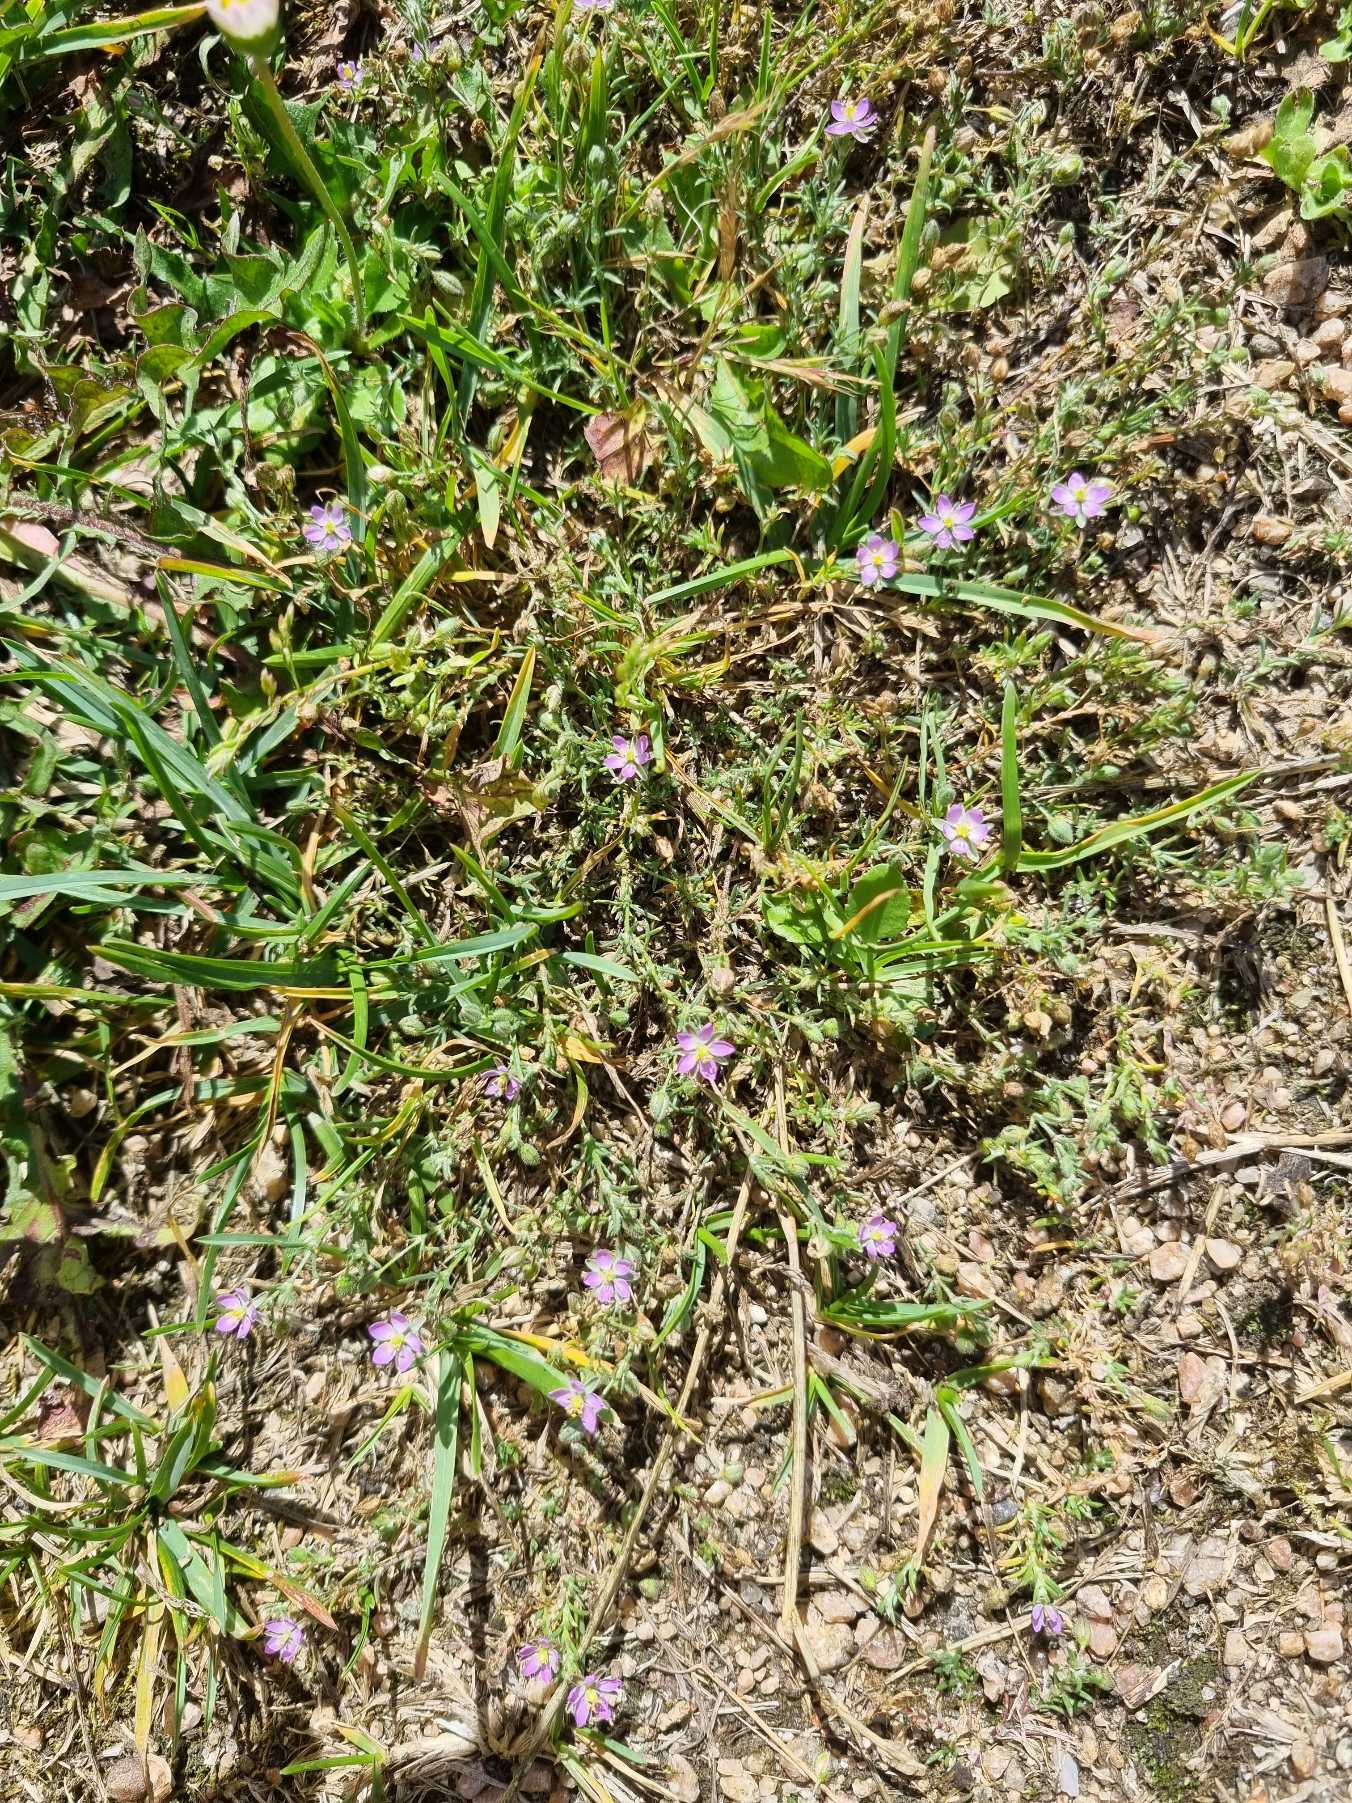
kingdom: Plantae
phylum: Tracheophyta
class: Magnoliopsida
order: Caryophyllales
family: Caryophyllaceae
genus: Spergularia
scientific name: Spergularia rubra
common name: Mark-hindeknæ
